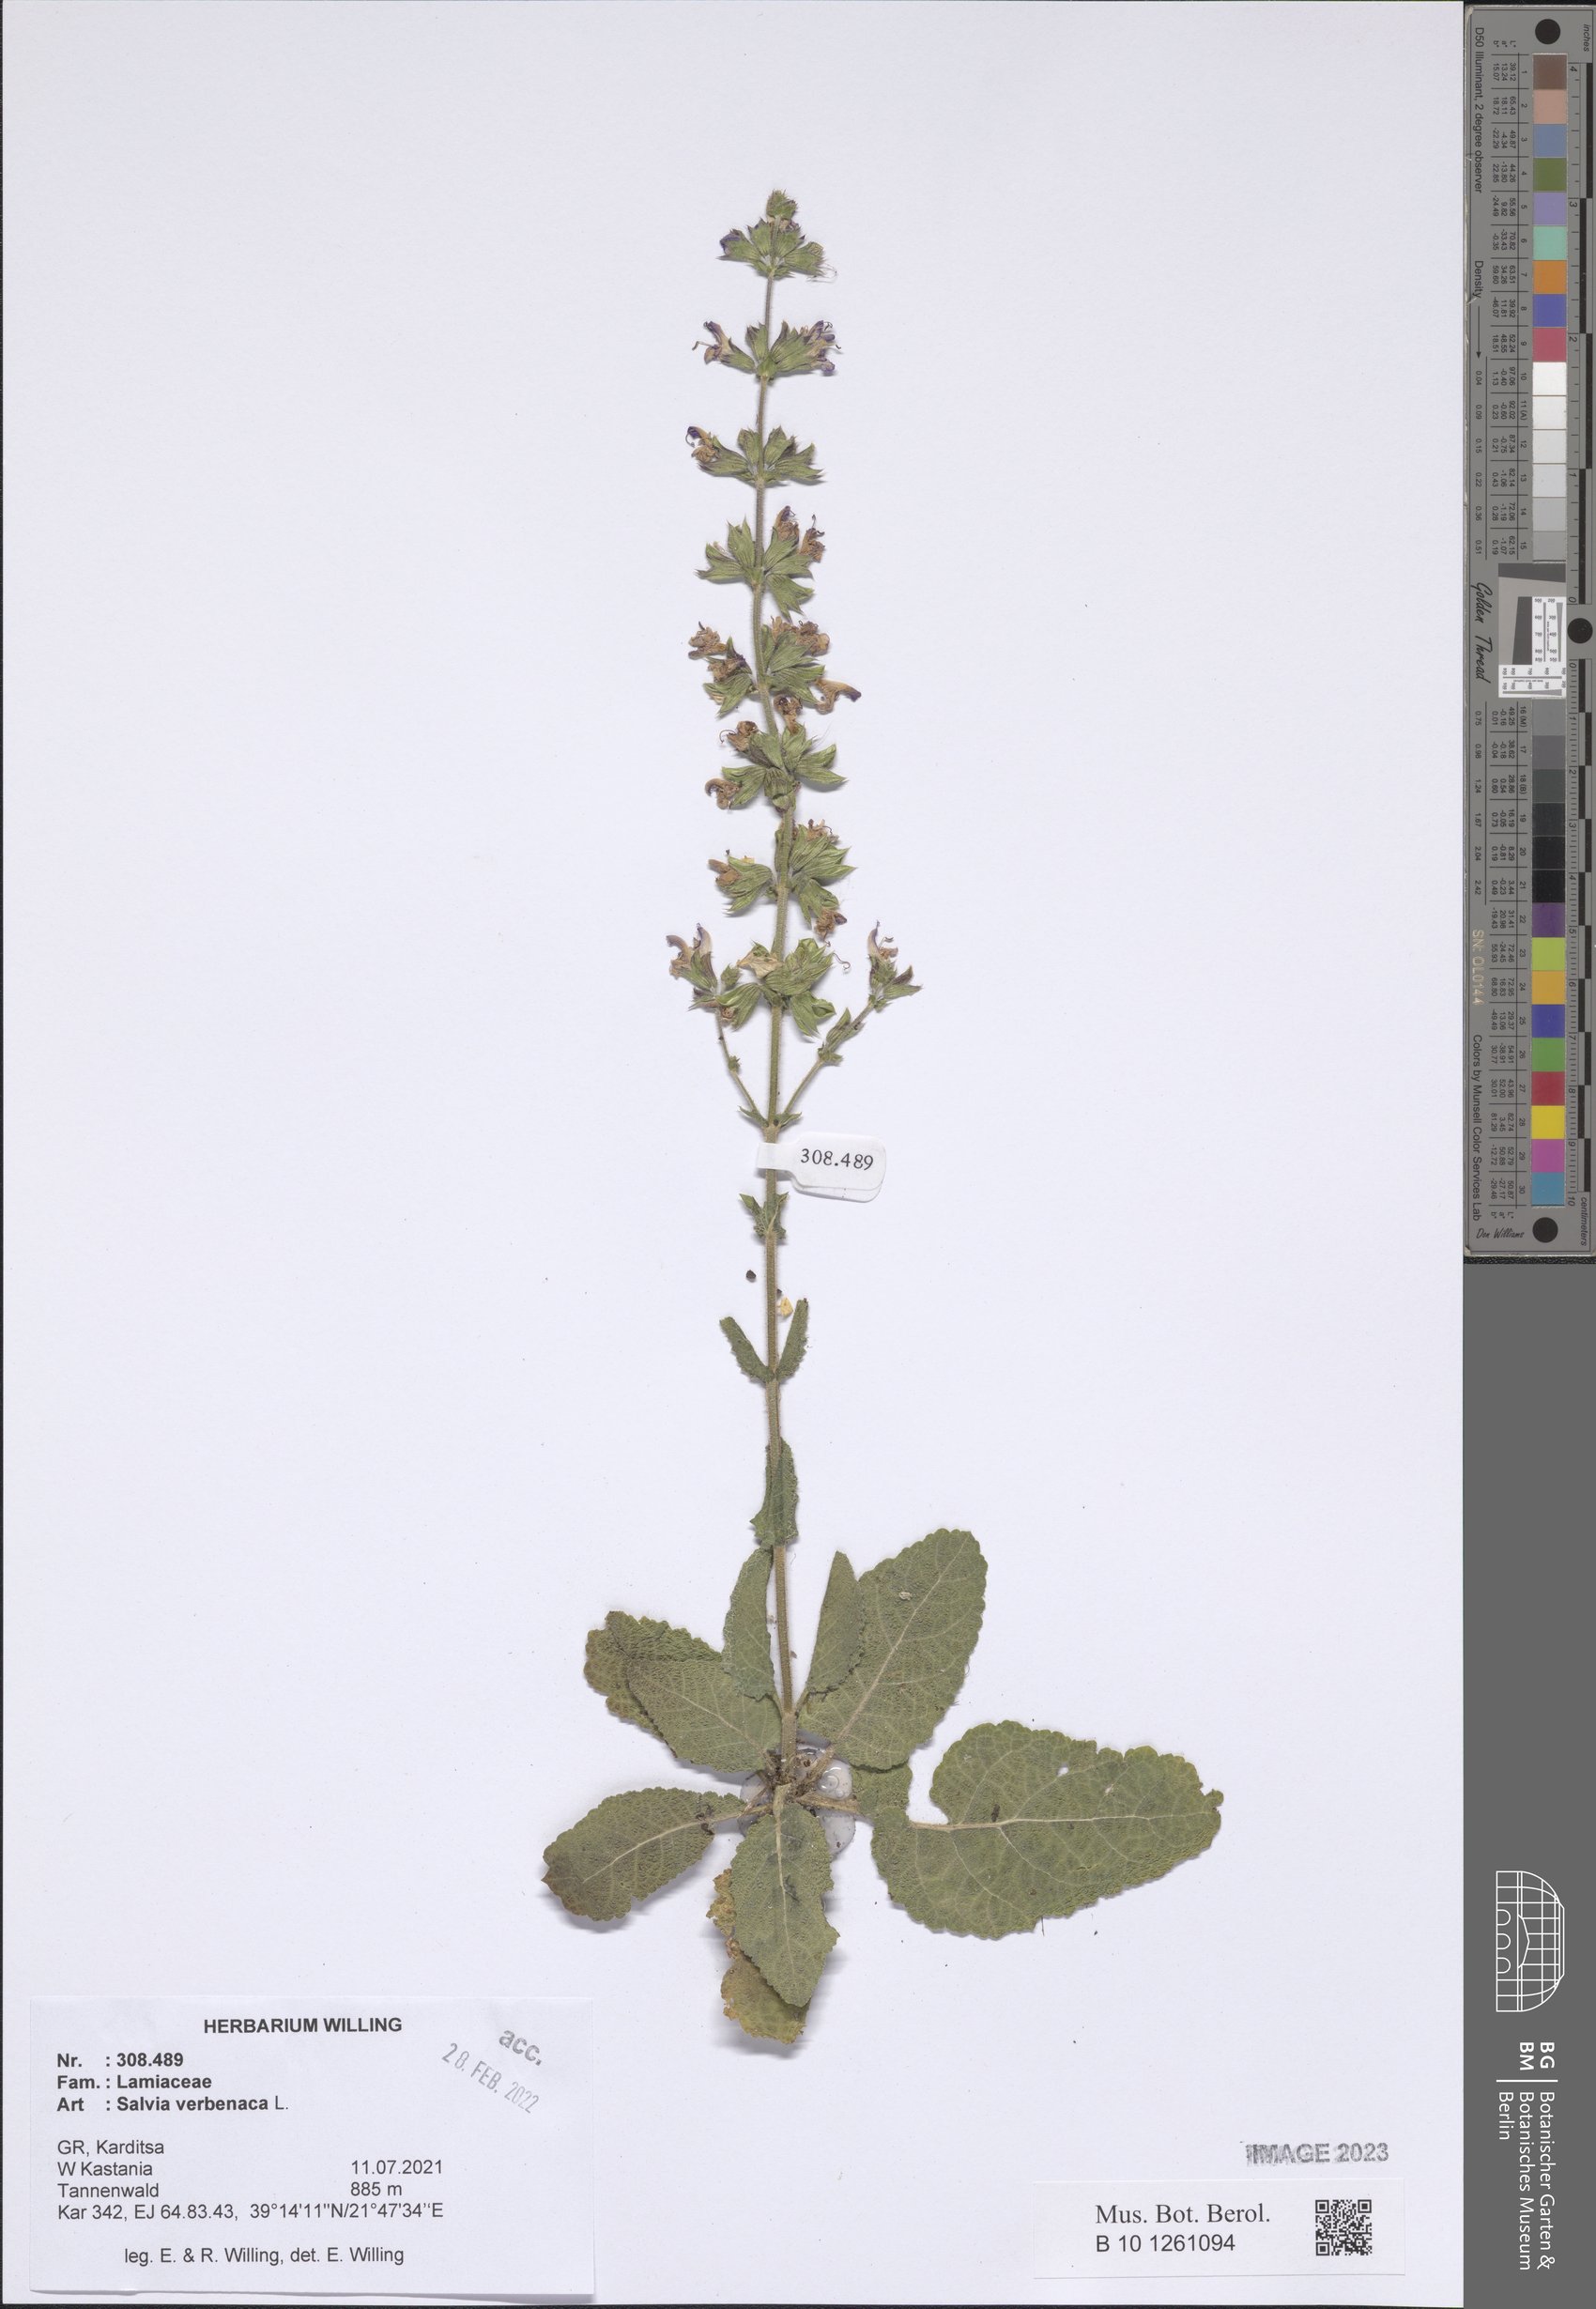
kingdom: Plantae
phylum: Tracheophyta
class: Magnoliopsida
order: Lamiales
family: Lamiaceae
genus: Salvia
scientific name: Salvia verbenaca
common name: Wild clary
